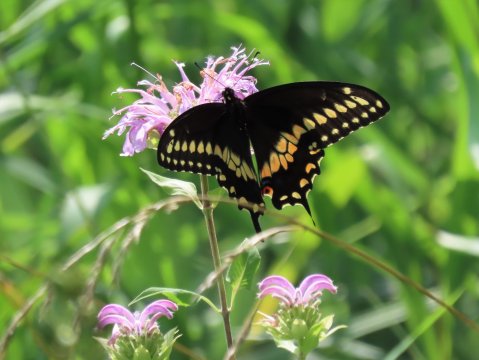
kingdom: Animalia
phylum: Arthropoda
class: Insecta
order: Lepidoptera
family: Papilionidae
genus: Papilio
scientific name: Papilio polyxenes
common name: Black Swallowtail
